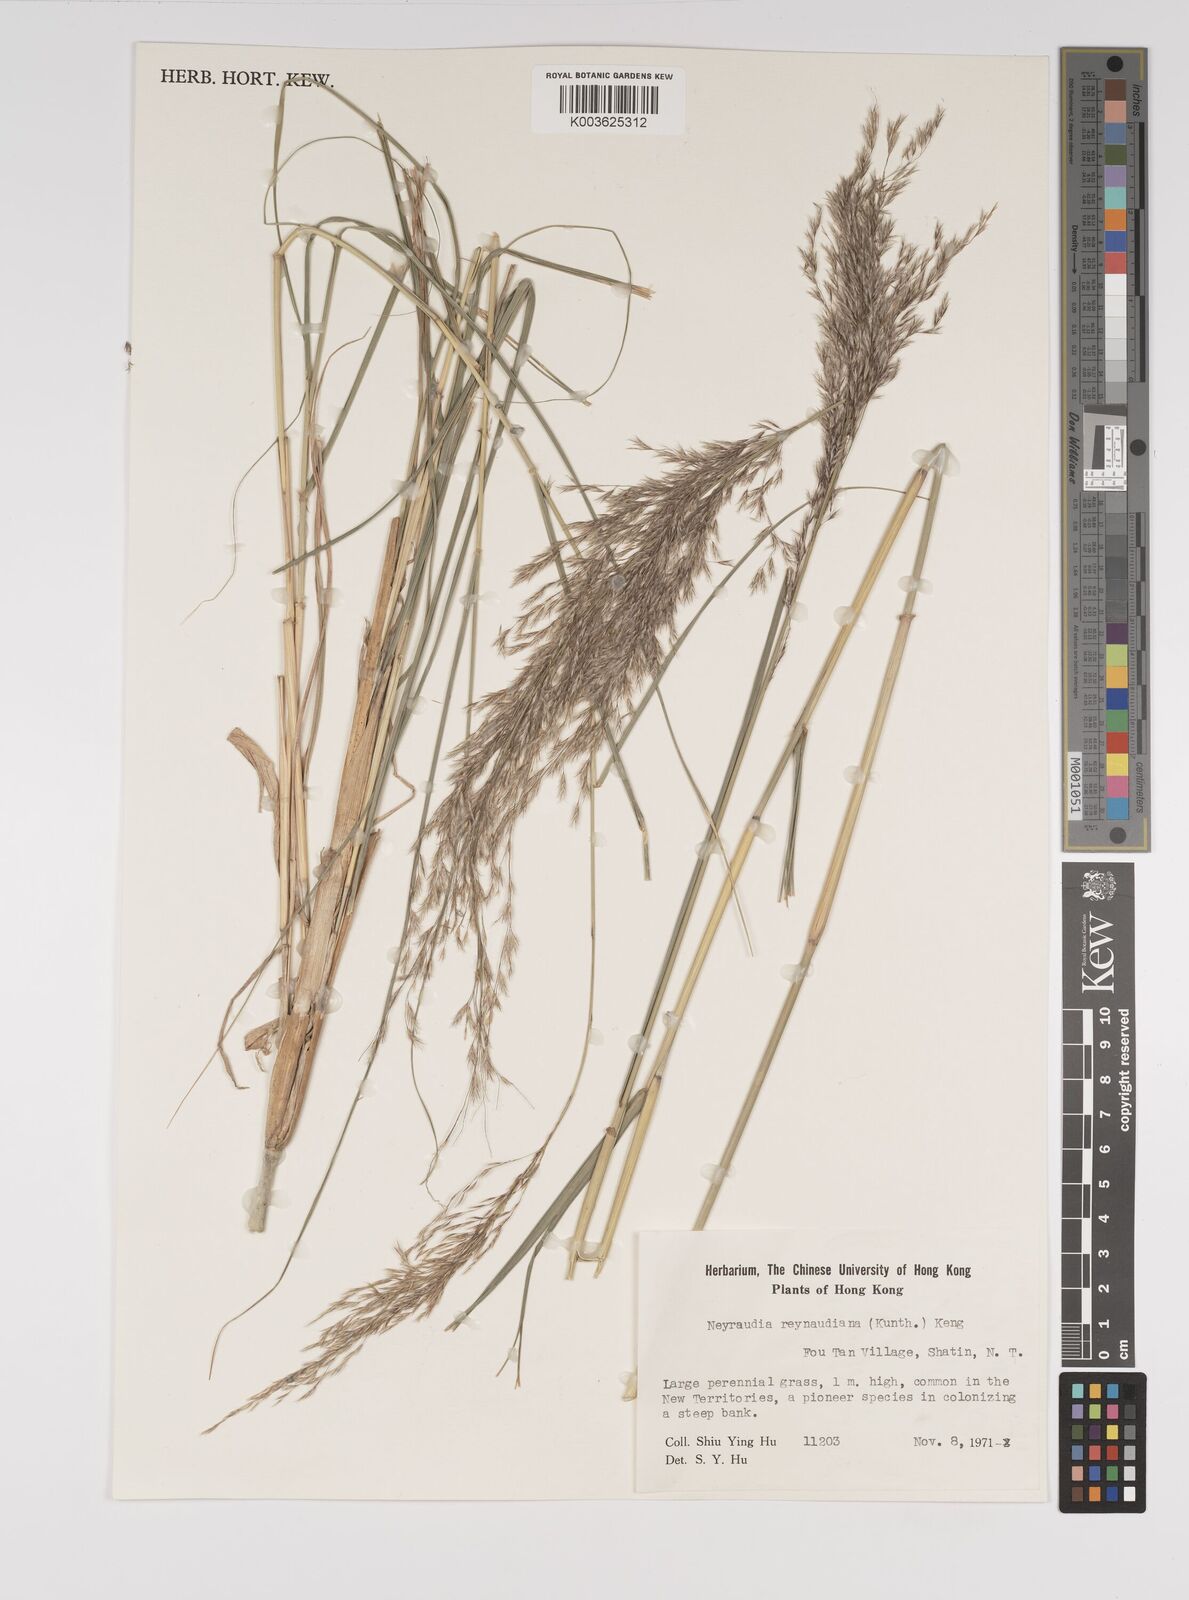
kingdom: Plantae
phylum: Tracheophyta
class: Liliopsida
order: Poales
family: Poaceae
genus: Neyraudia
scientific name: Neyraudia reynaudiana
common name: Silkreed
